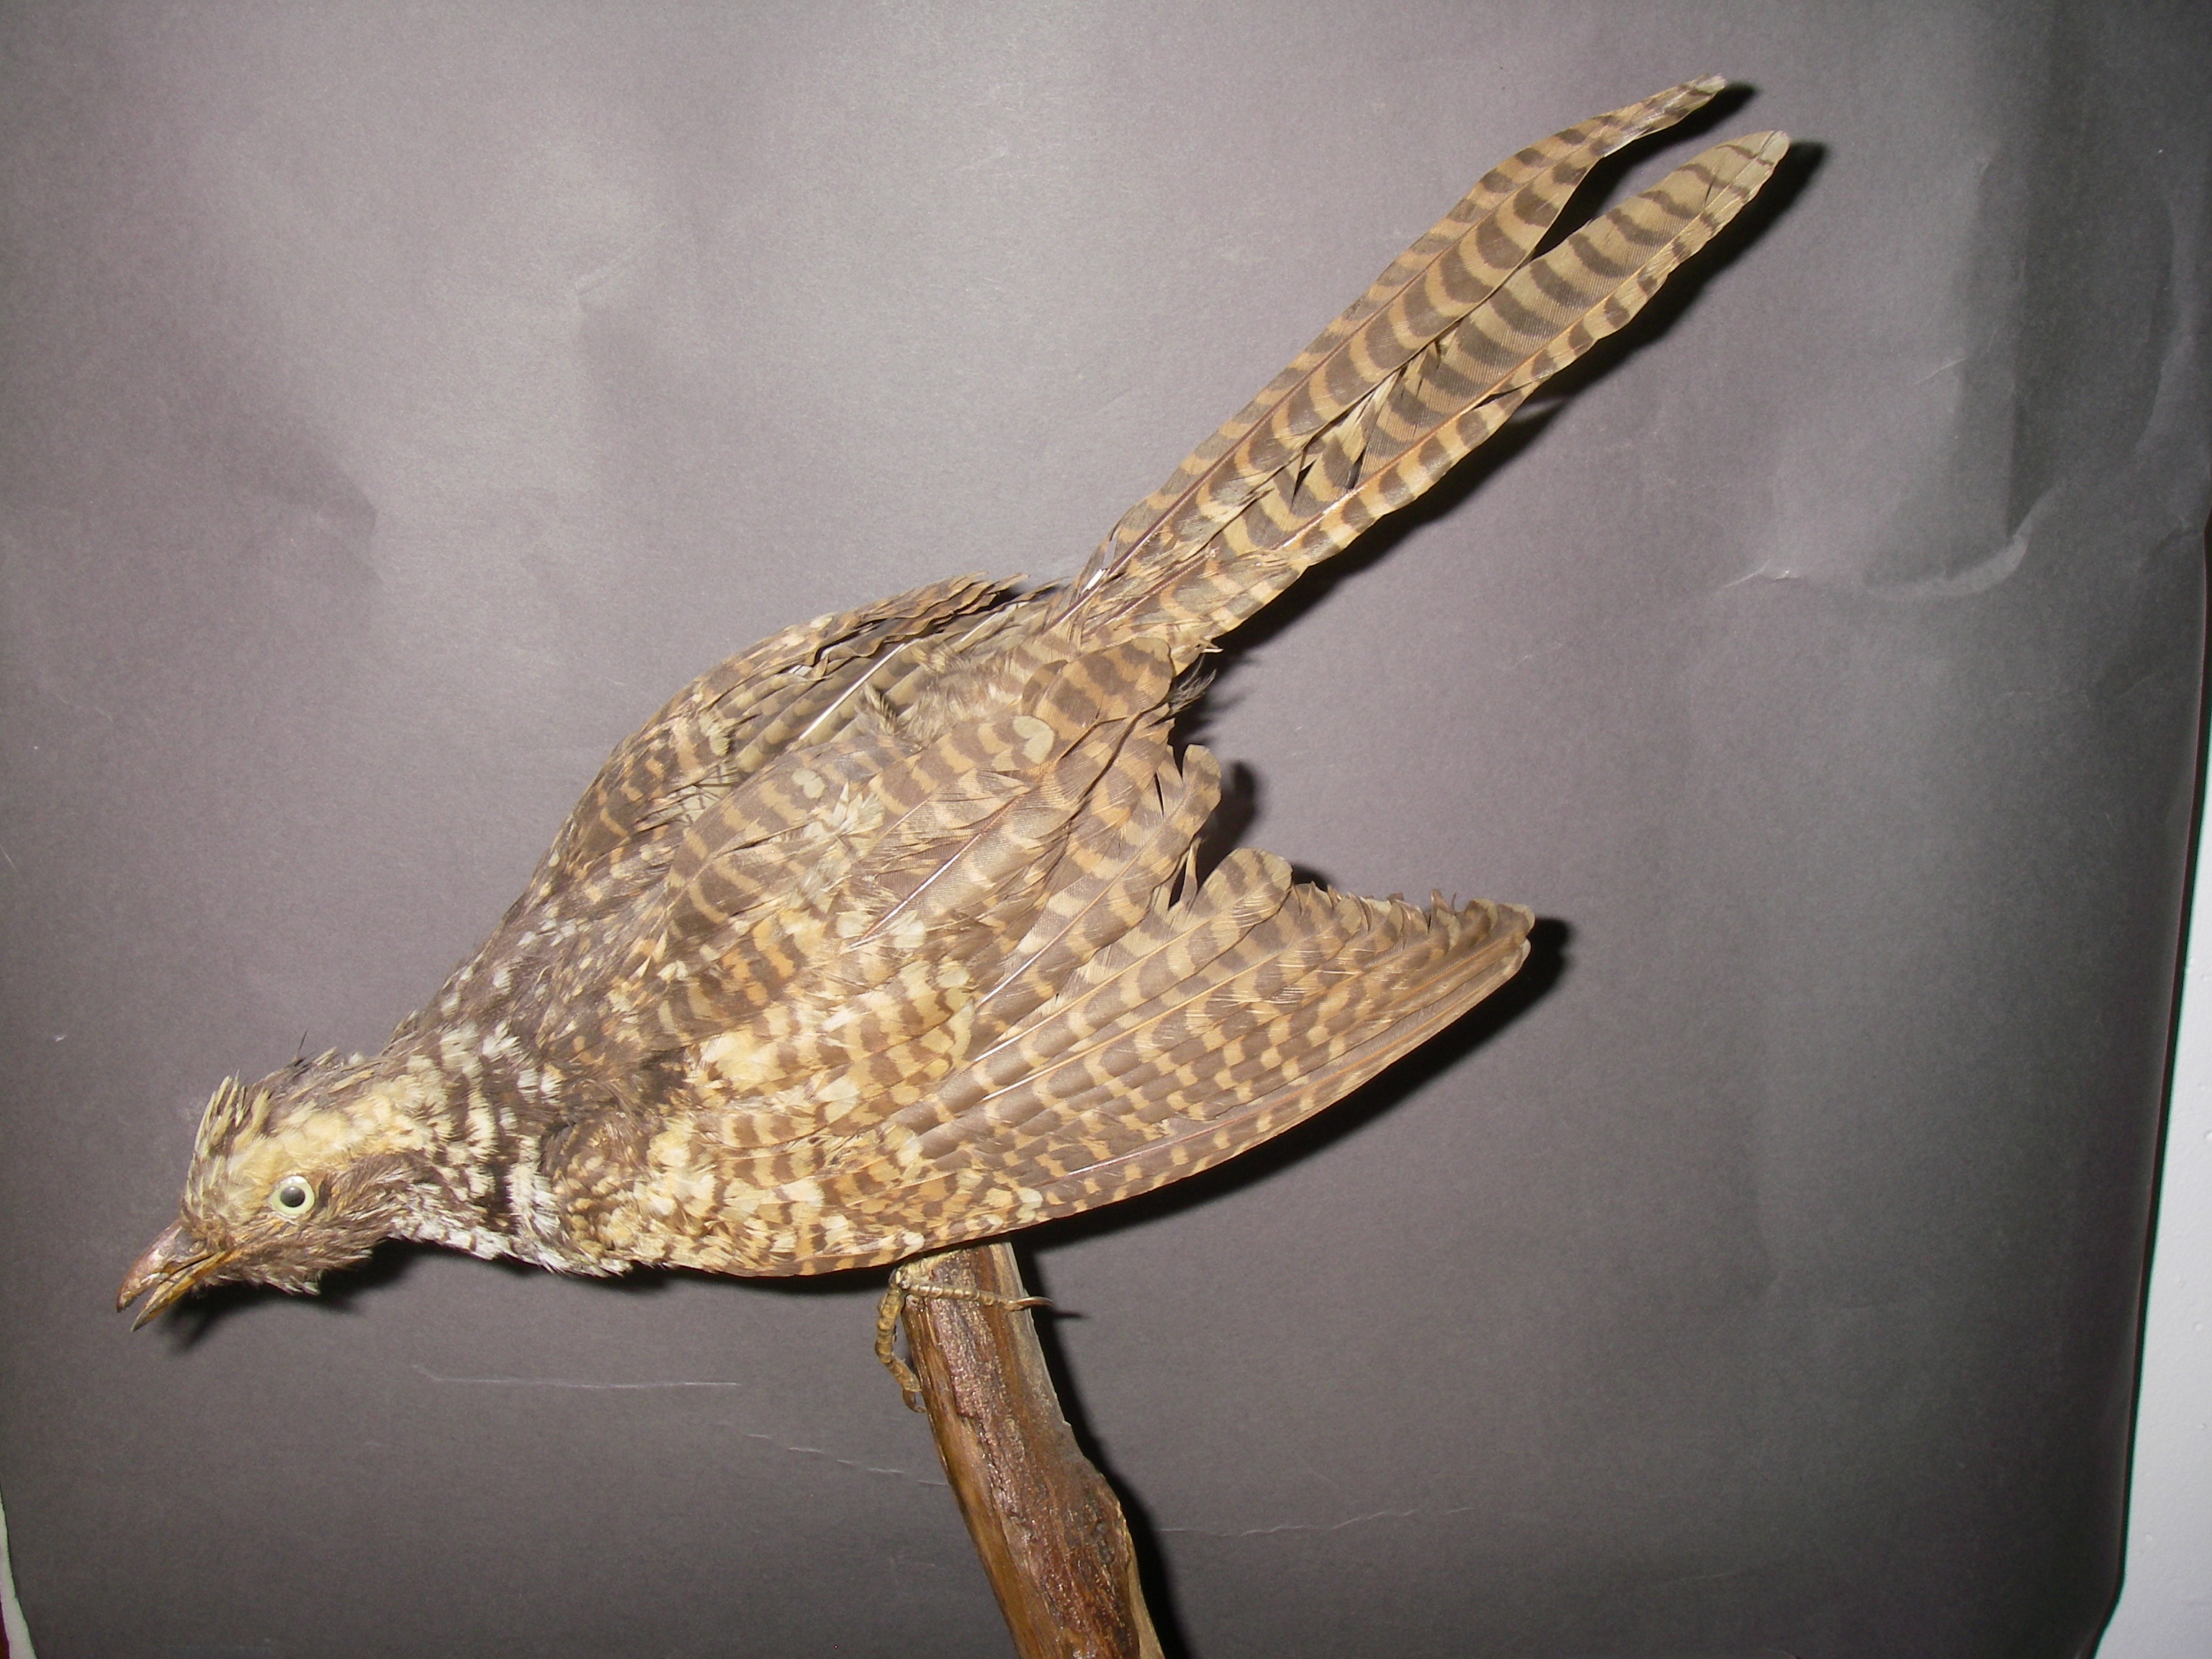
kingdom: Animalia
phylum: Chordata
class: Aves
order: Cuculiformes
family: Cuculidae
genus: Eudynamys
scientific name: Eudynamys scolopaceus
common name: Asian koel
